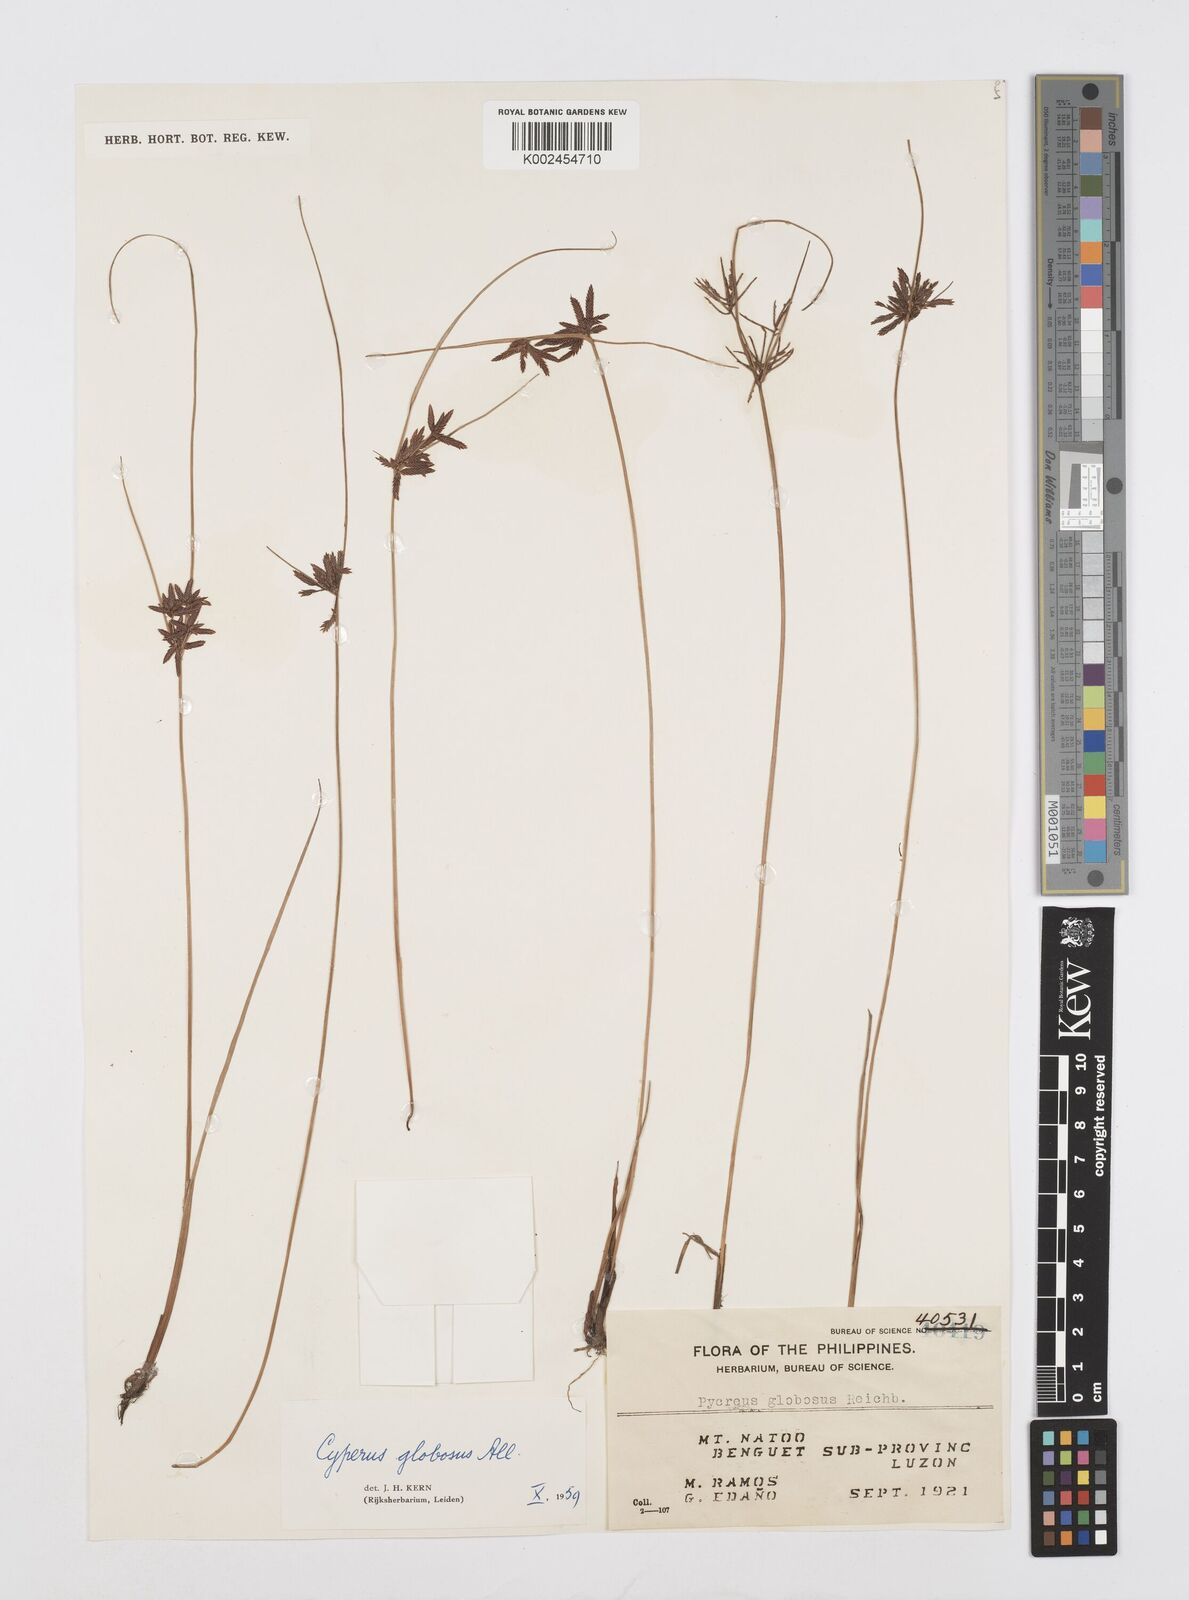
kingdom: Plantae
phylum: Tracheophyta
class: Liliopsida
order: Poales
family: Cyperaceae
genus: Cyperus
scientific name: Cyperus flavidus
